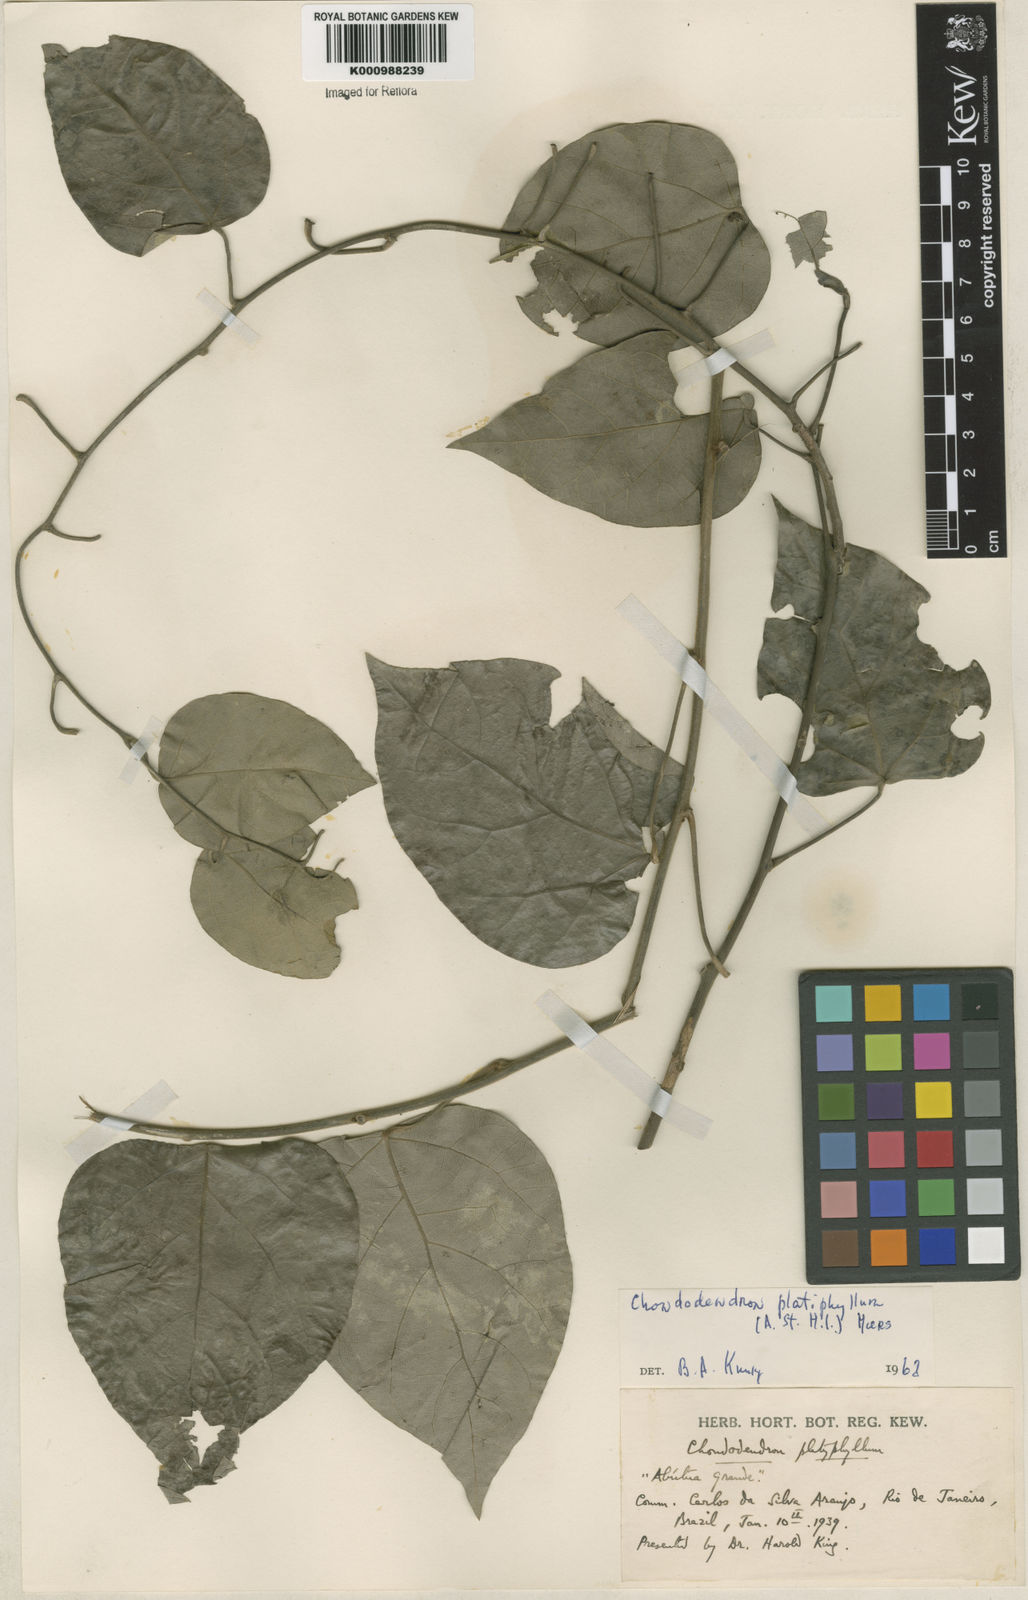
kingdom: Plantae
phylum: Tracheophyta
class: Magnoliopsida
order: Ranunculales
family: Menispermaceae
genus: Chondrodendron
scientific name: Chondrodendron platyphyllum
